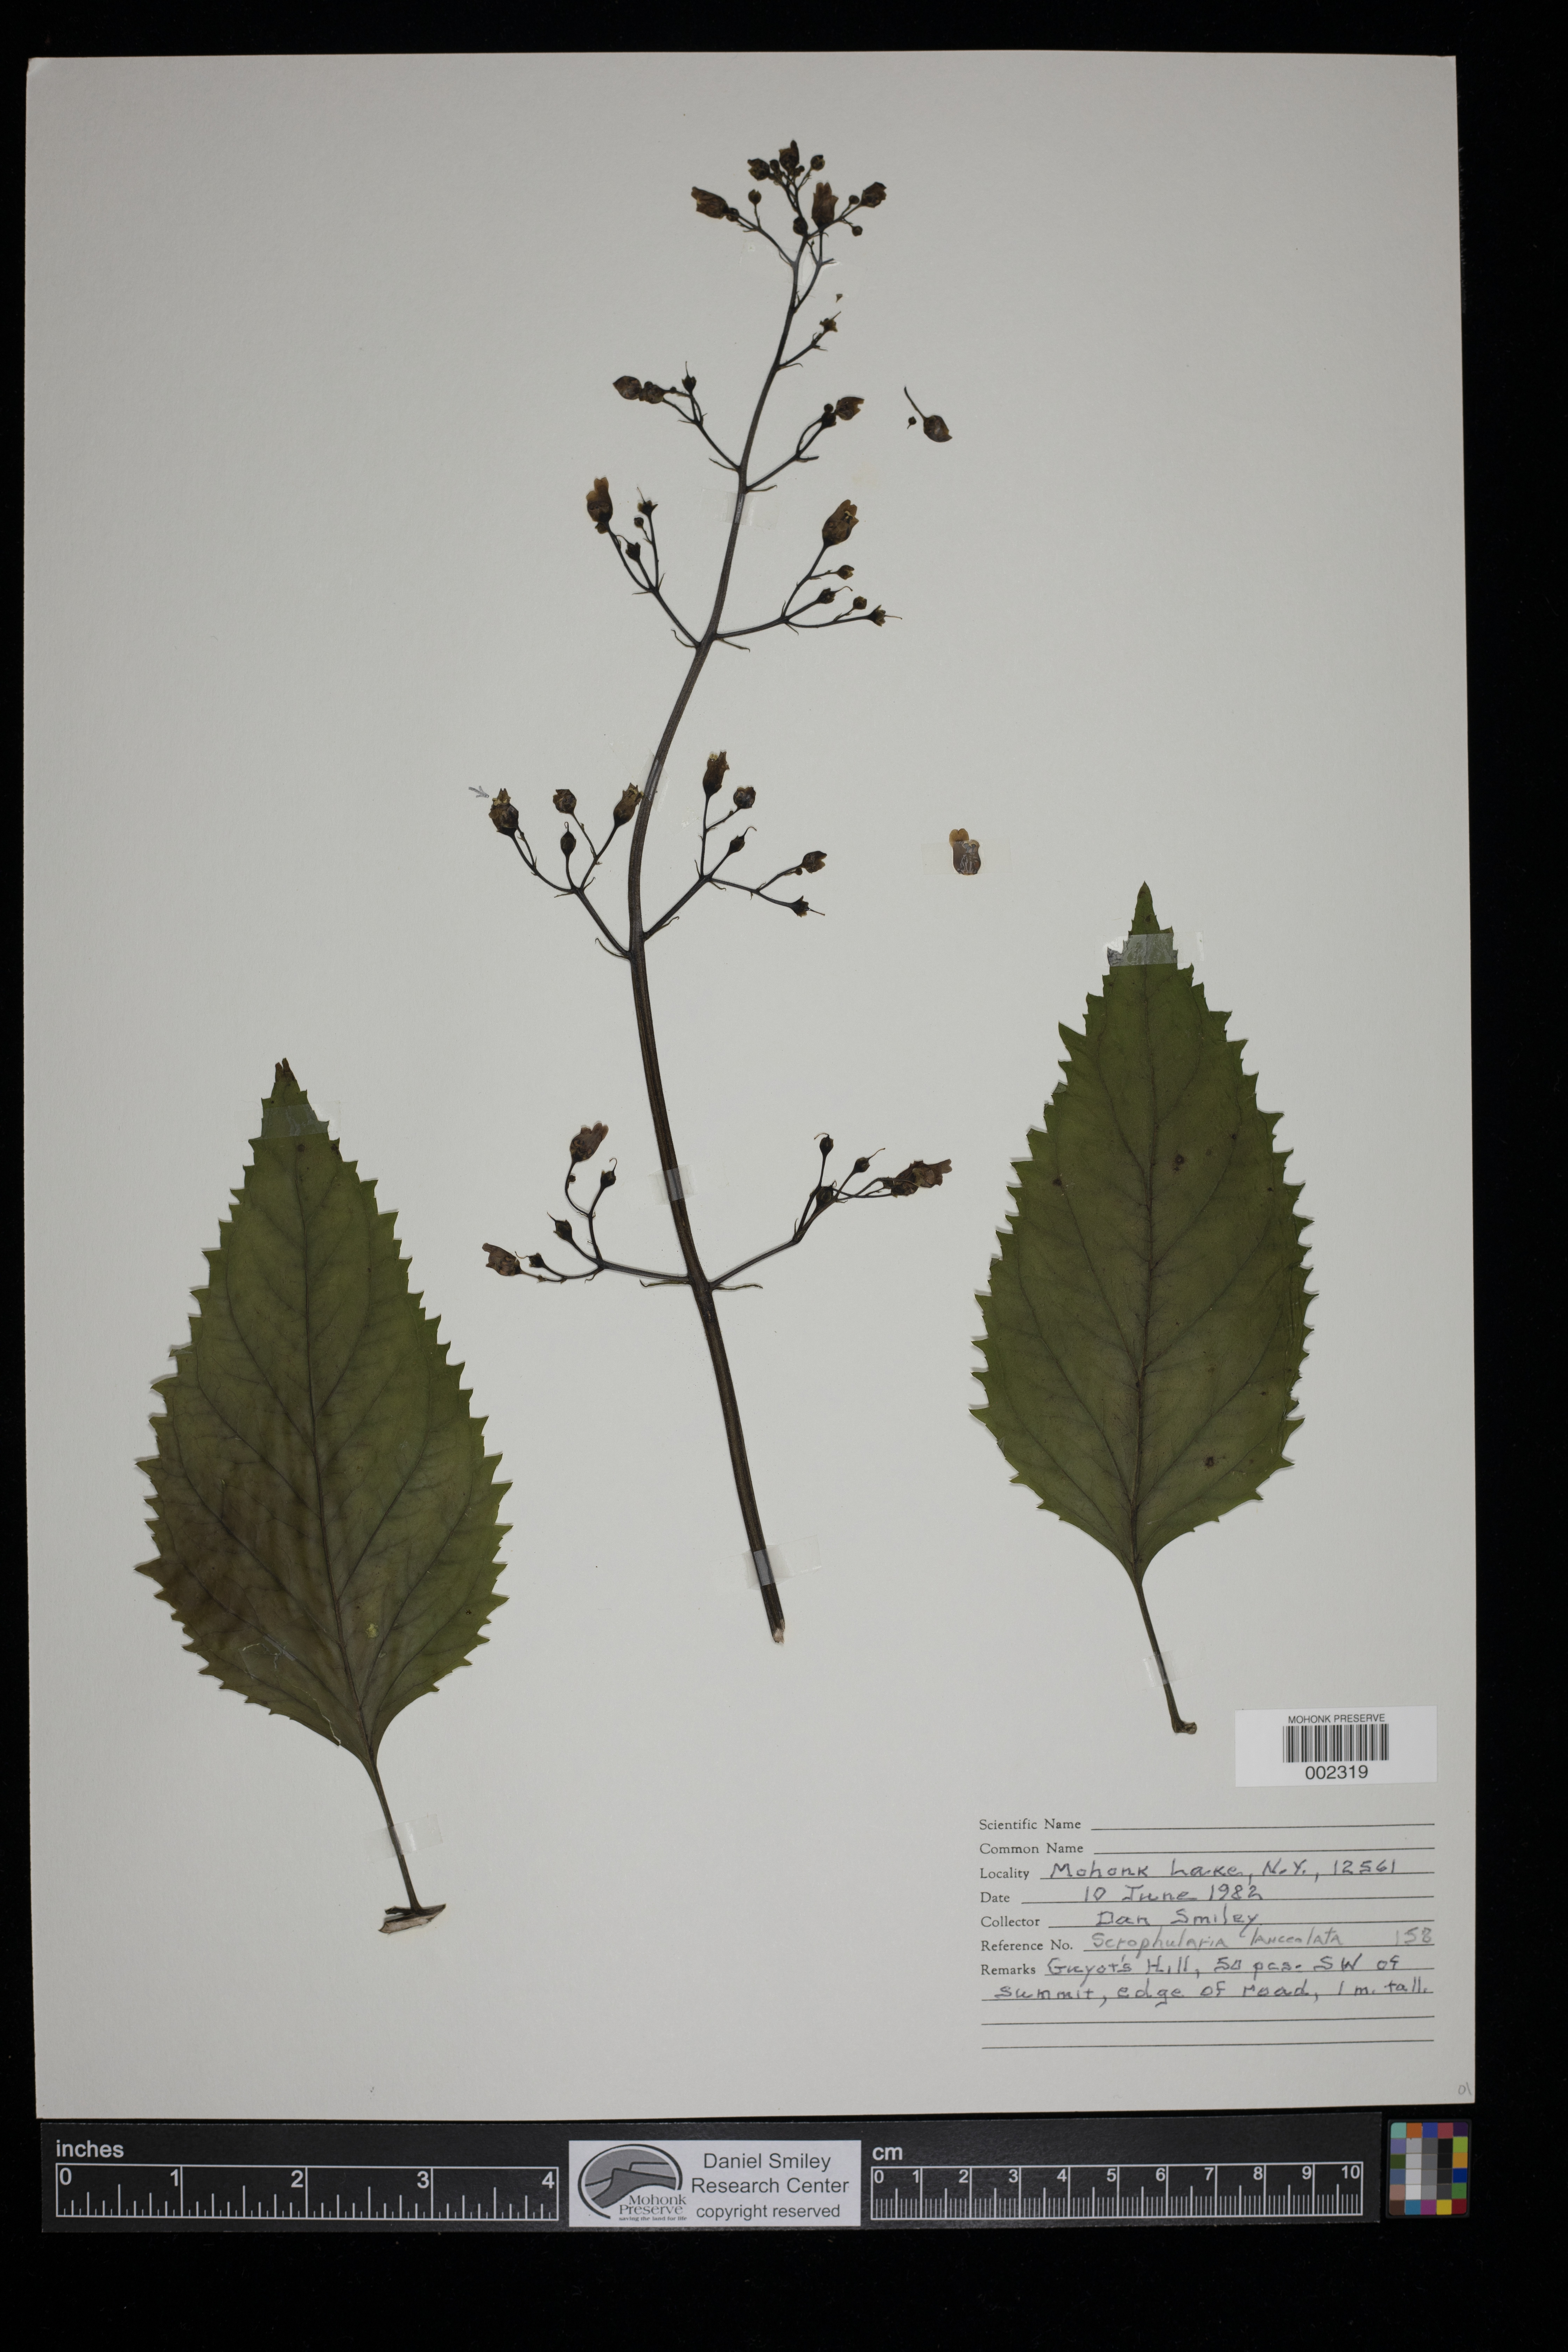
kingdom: Plantae
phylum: Tracheophyta
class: Magnoliopsida
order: Lamiales
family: Scrophulariaceae
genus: Scrophularia
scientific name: Scrophularia lanceolata
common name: American figwort
